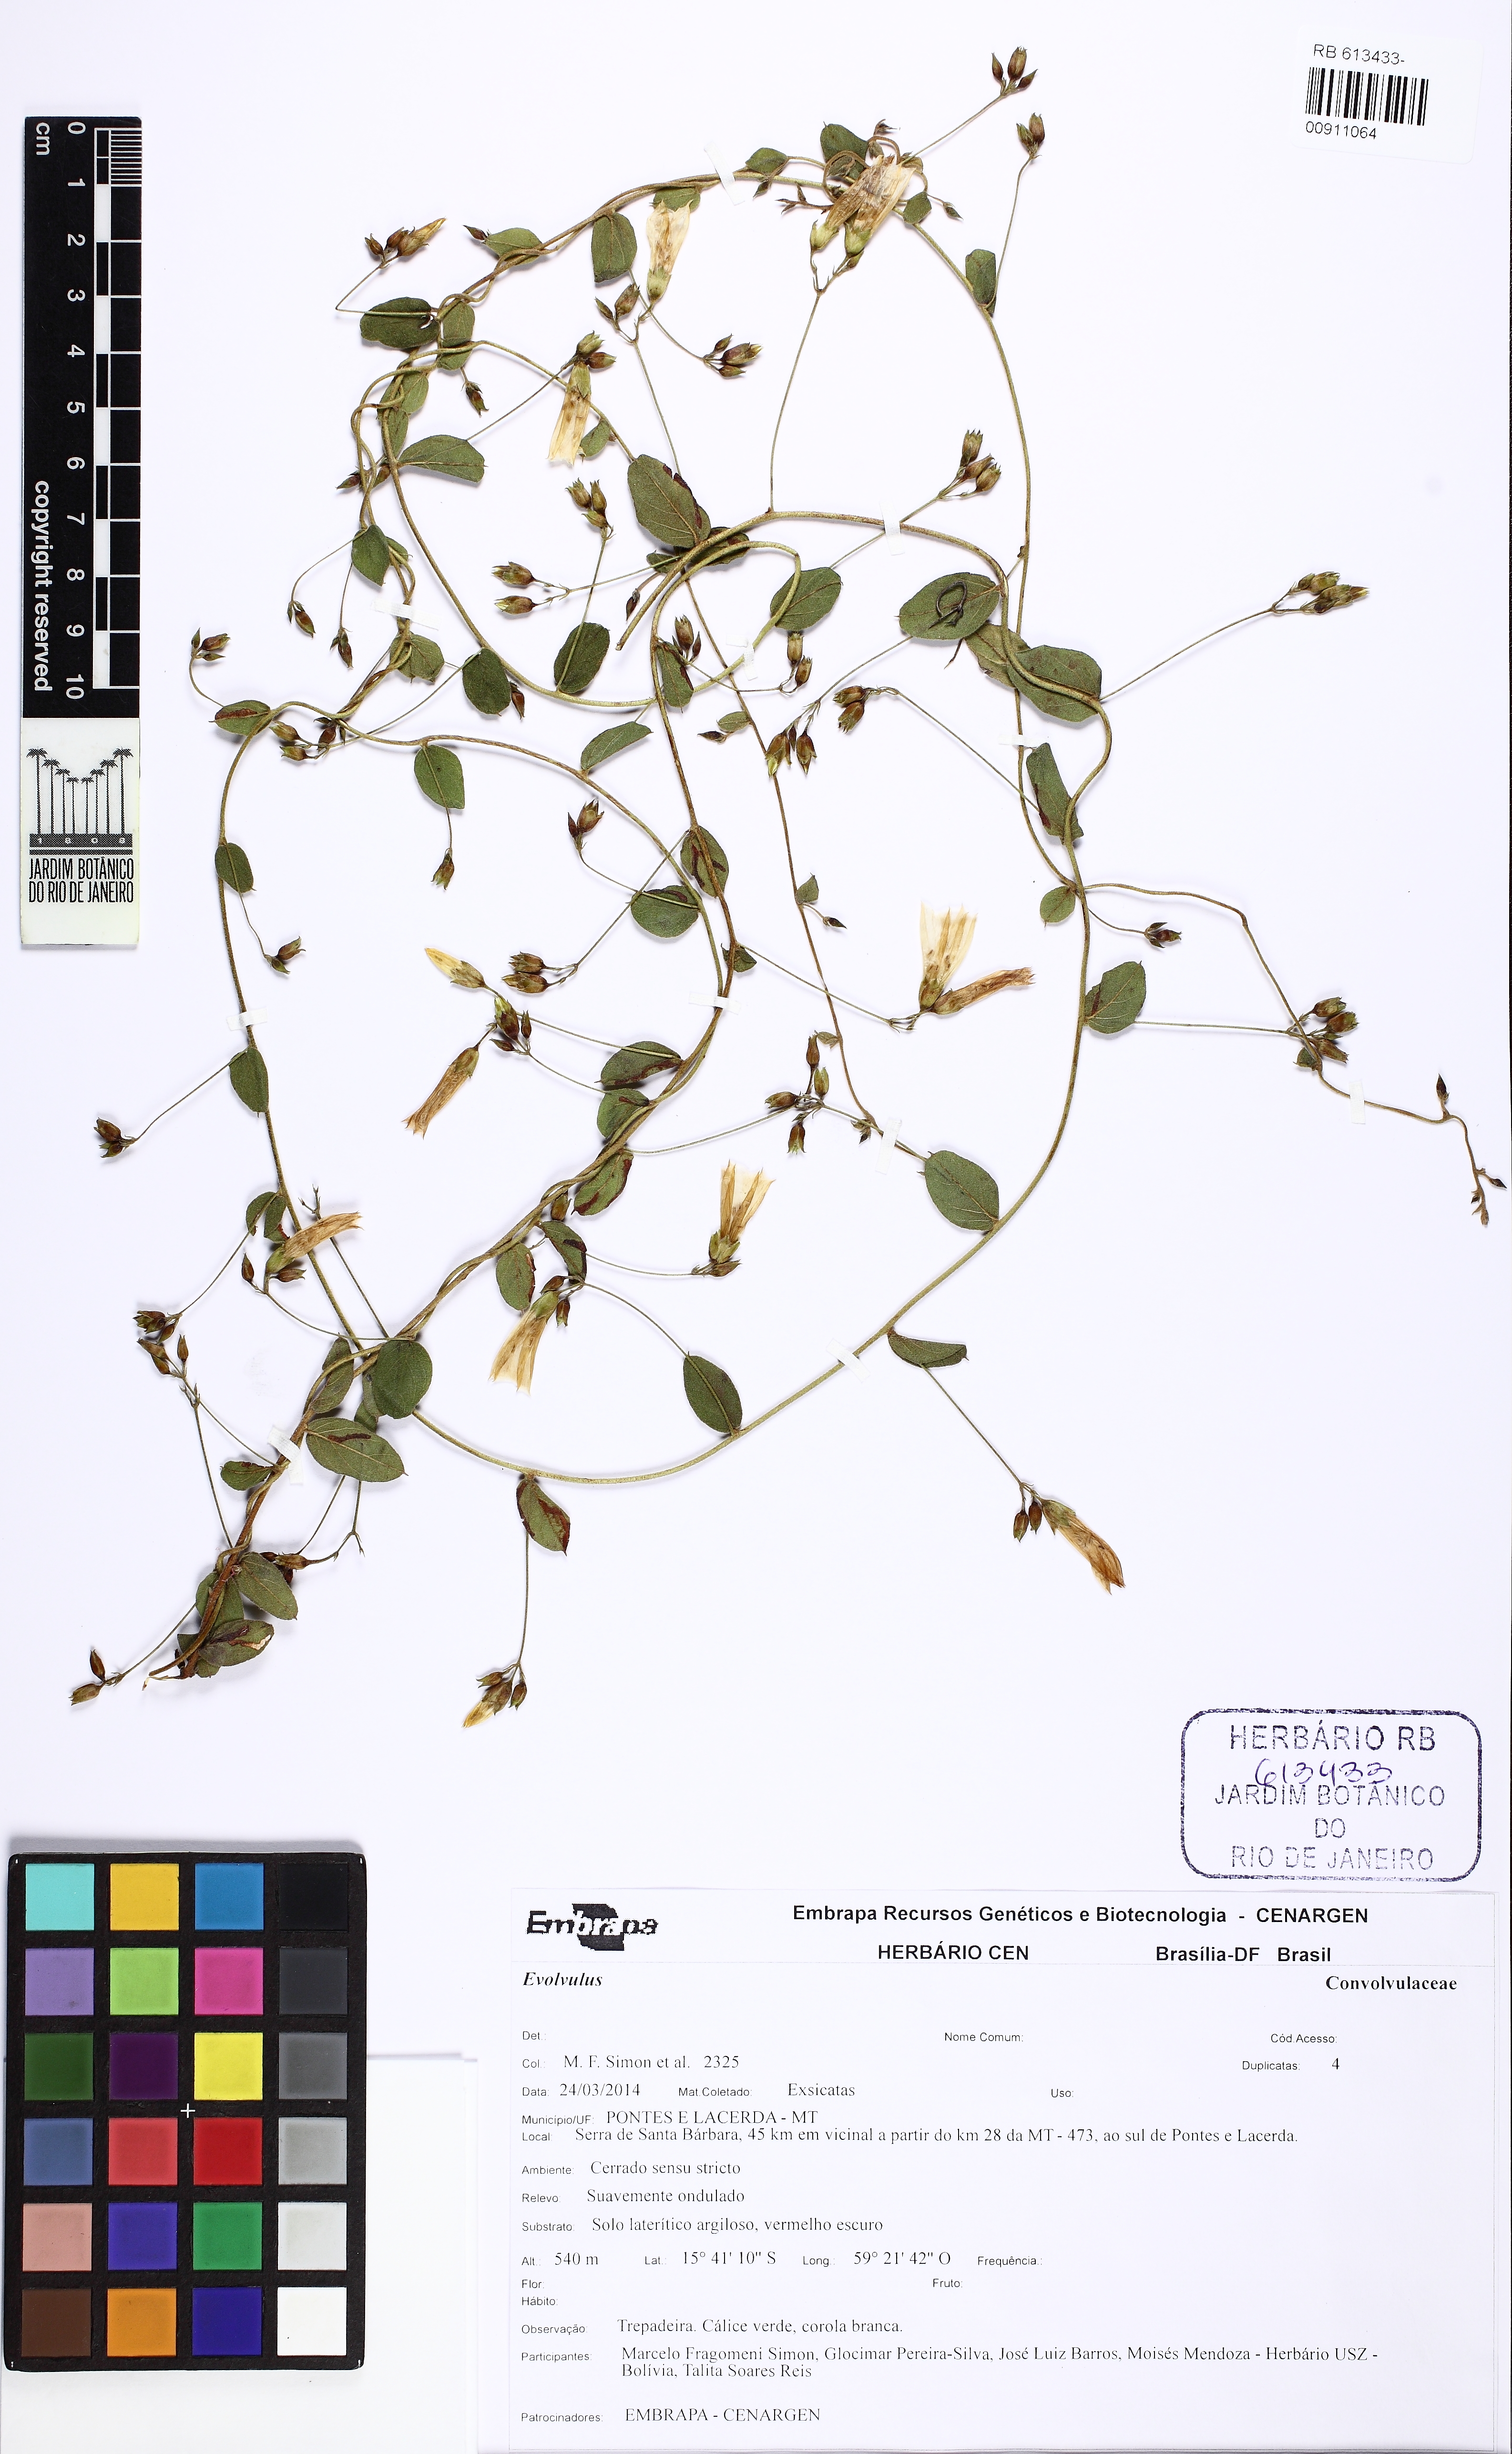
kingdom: Plantae
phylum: Tracheophyta
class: Magnoliopsida
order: Solanales
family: Convolvulaceae
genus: Jacquemontia
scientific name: Jacquemontia gracilis
